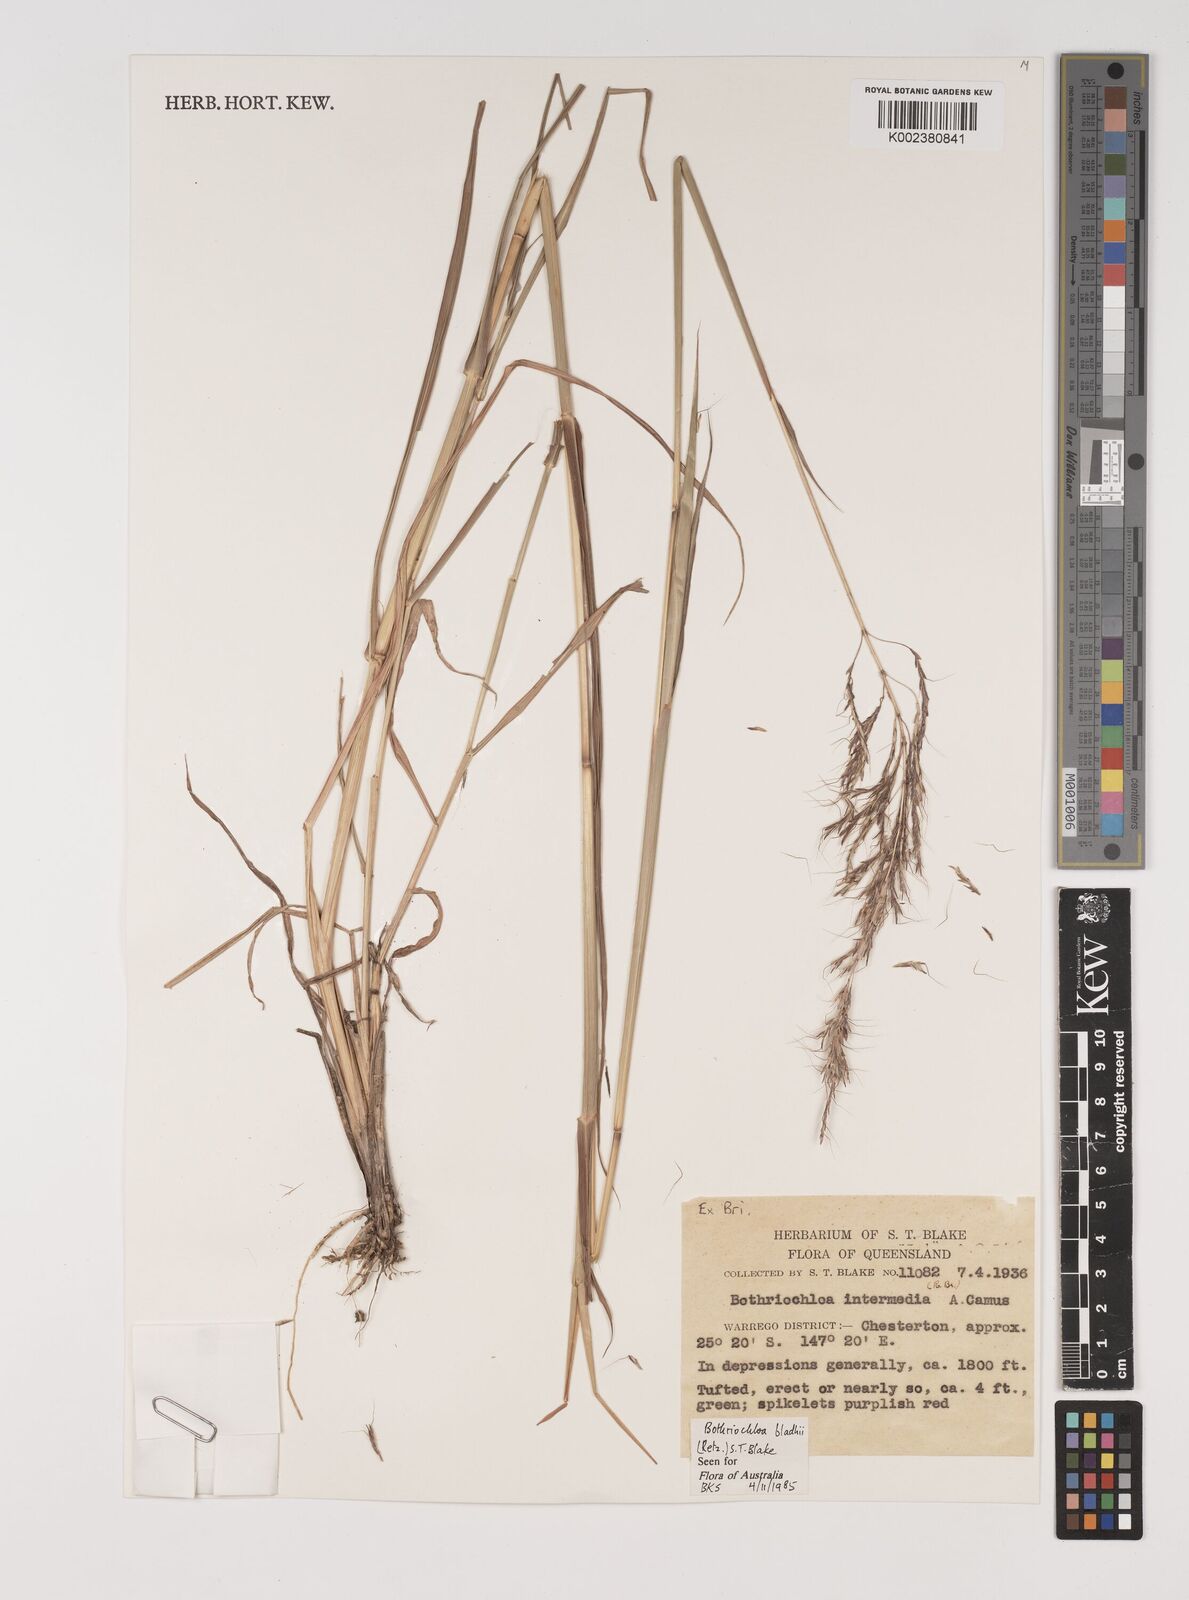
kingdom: Plantae
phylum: Tracheophyta
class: Liliopsida
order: Poales
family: Poaceae
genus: Bothriochloa
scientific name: Bothriochloa bladhii
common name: Caucasian bluestem
